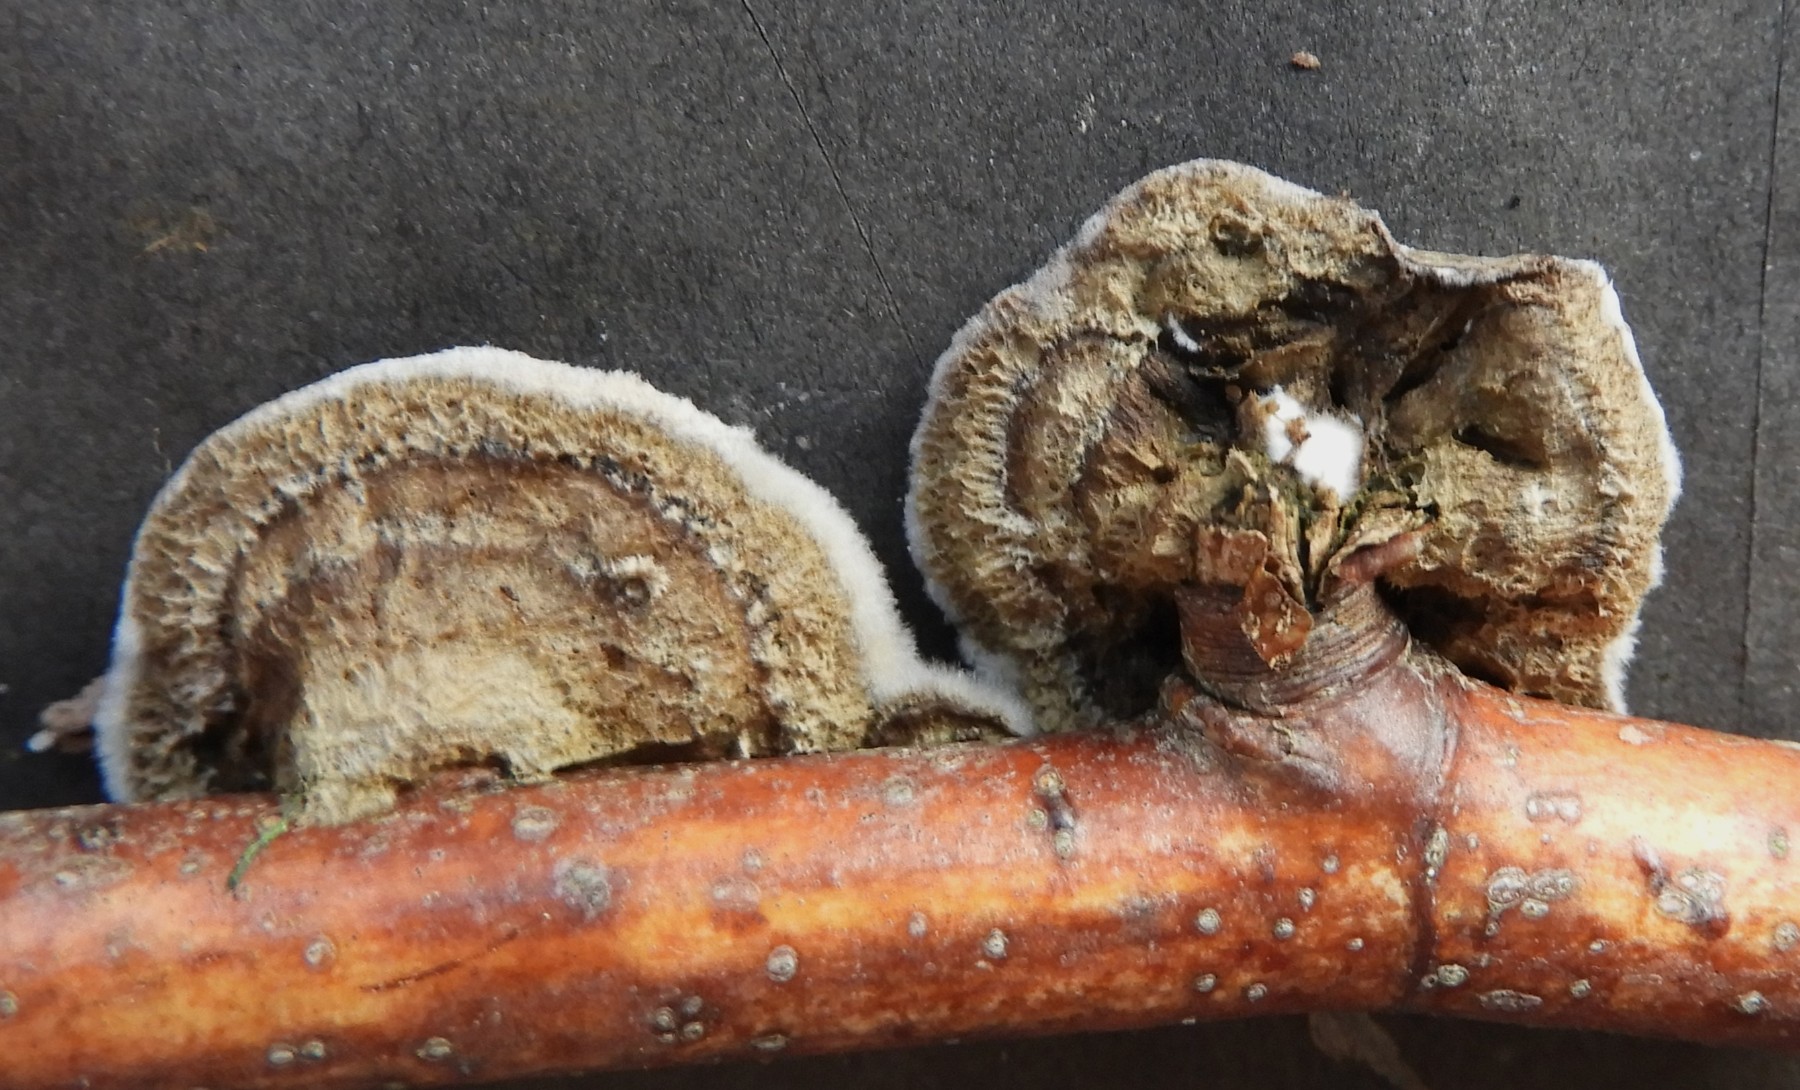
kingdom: Fungi
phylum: Basidiomycota
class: Agaricomycetes
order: Polyporales
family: Phanerochaetaceae
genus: Porostereum
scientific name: Porostereum spadiceum
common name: daddellædersvamp
